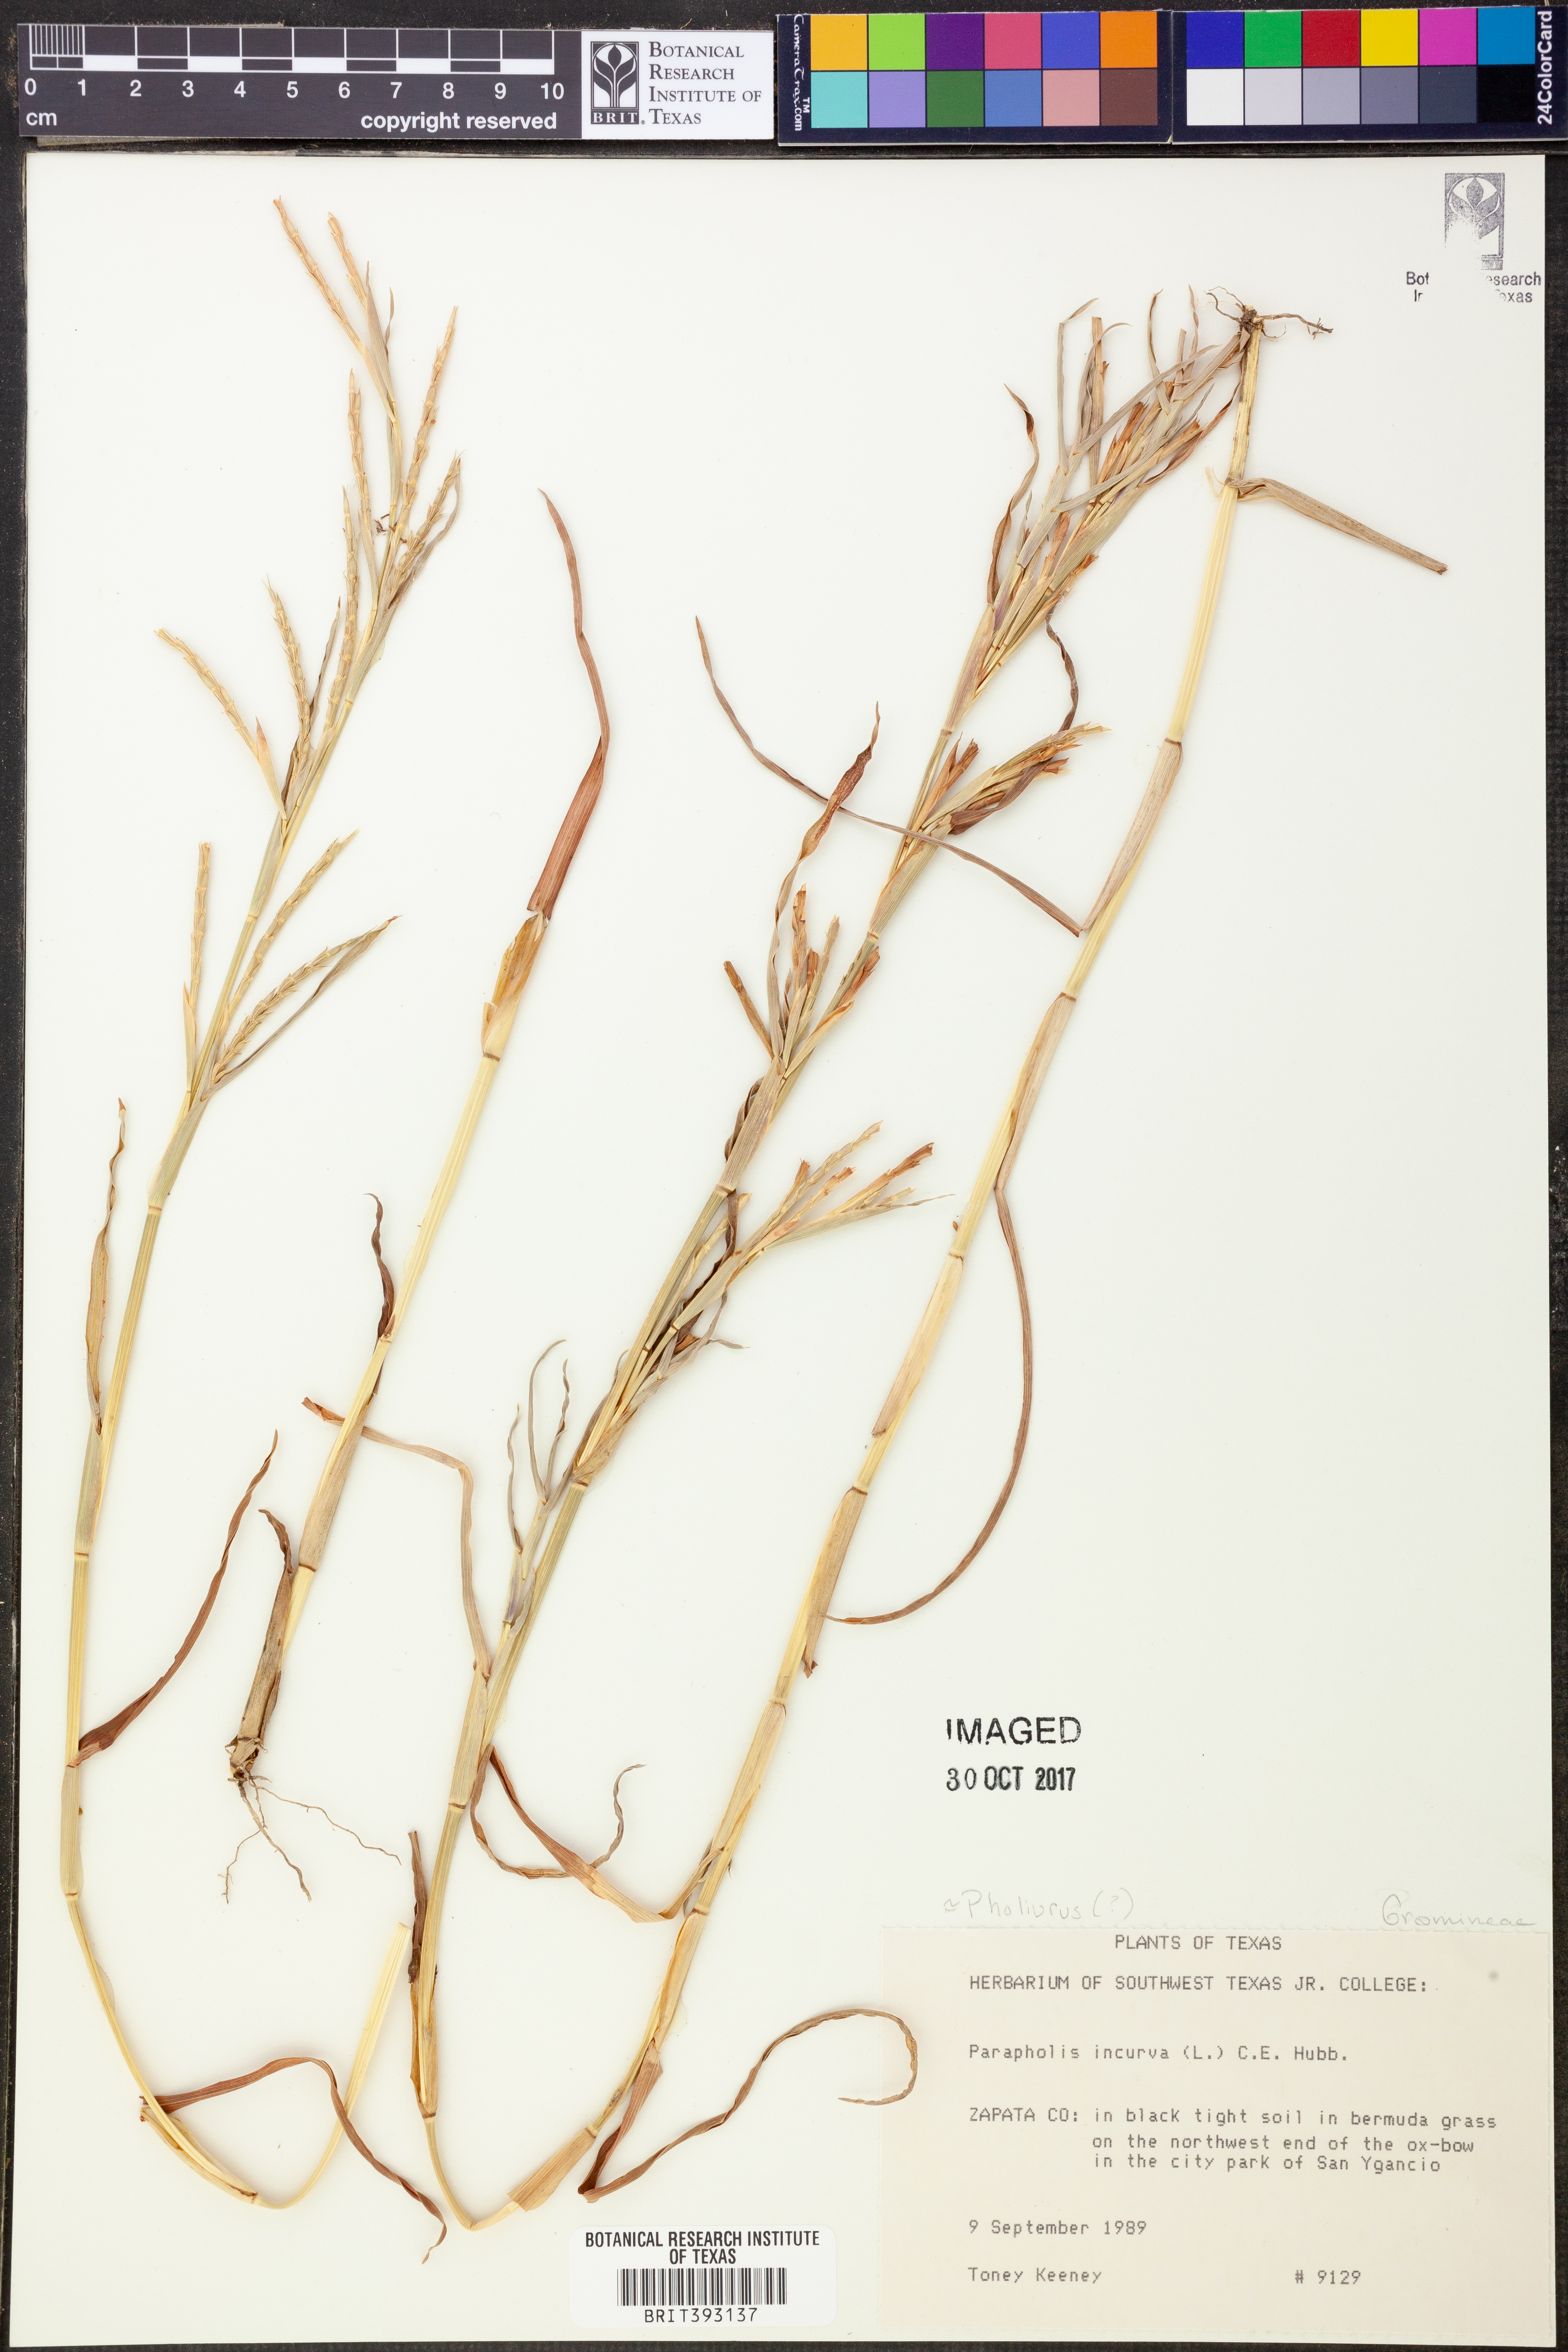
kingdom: Plantae
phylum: Tracheophyta
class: Liliopsida
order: Poales
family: Poaceae
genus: Parapholis
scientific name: Parapholis incurva
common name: Curved sicklegrass
